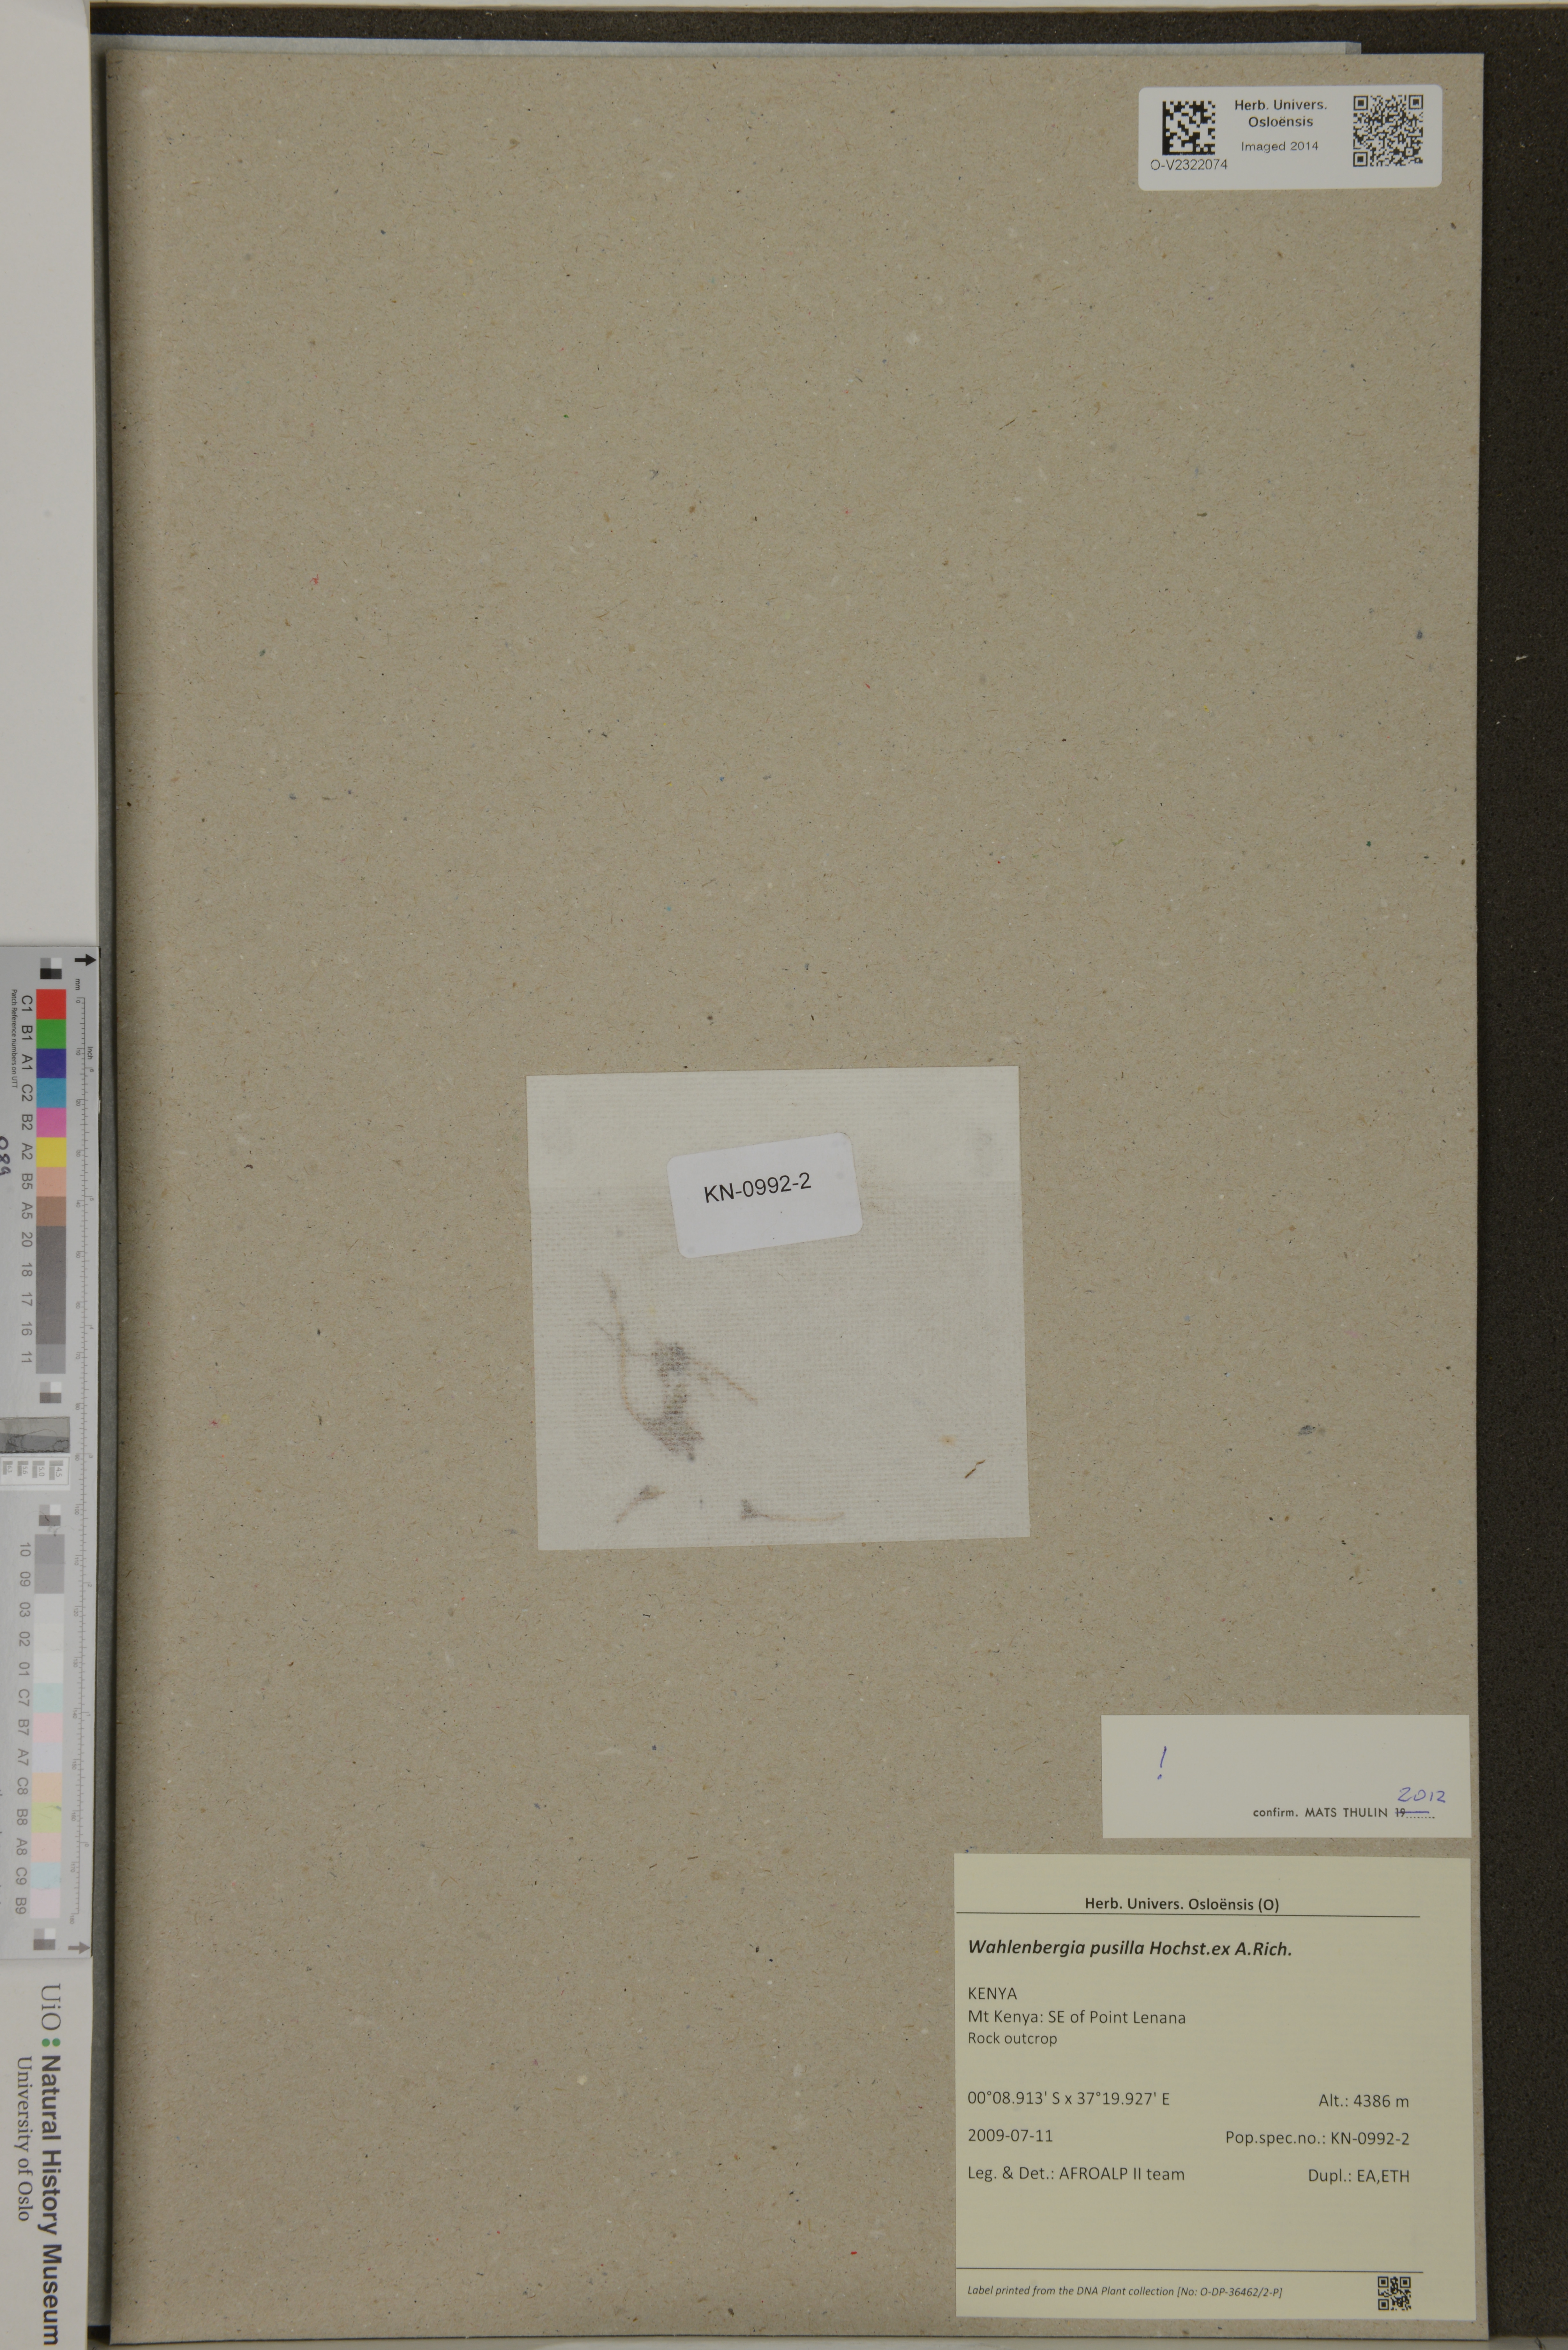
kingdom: Plantae
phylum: Tracheophyta
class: Magnoliopsida
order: Asterales
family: Campanulaceae
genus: Wahlenbergia
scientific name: Wahlenbergia pusilla
